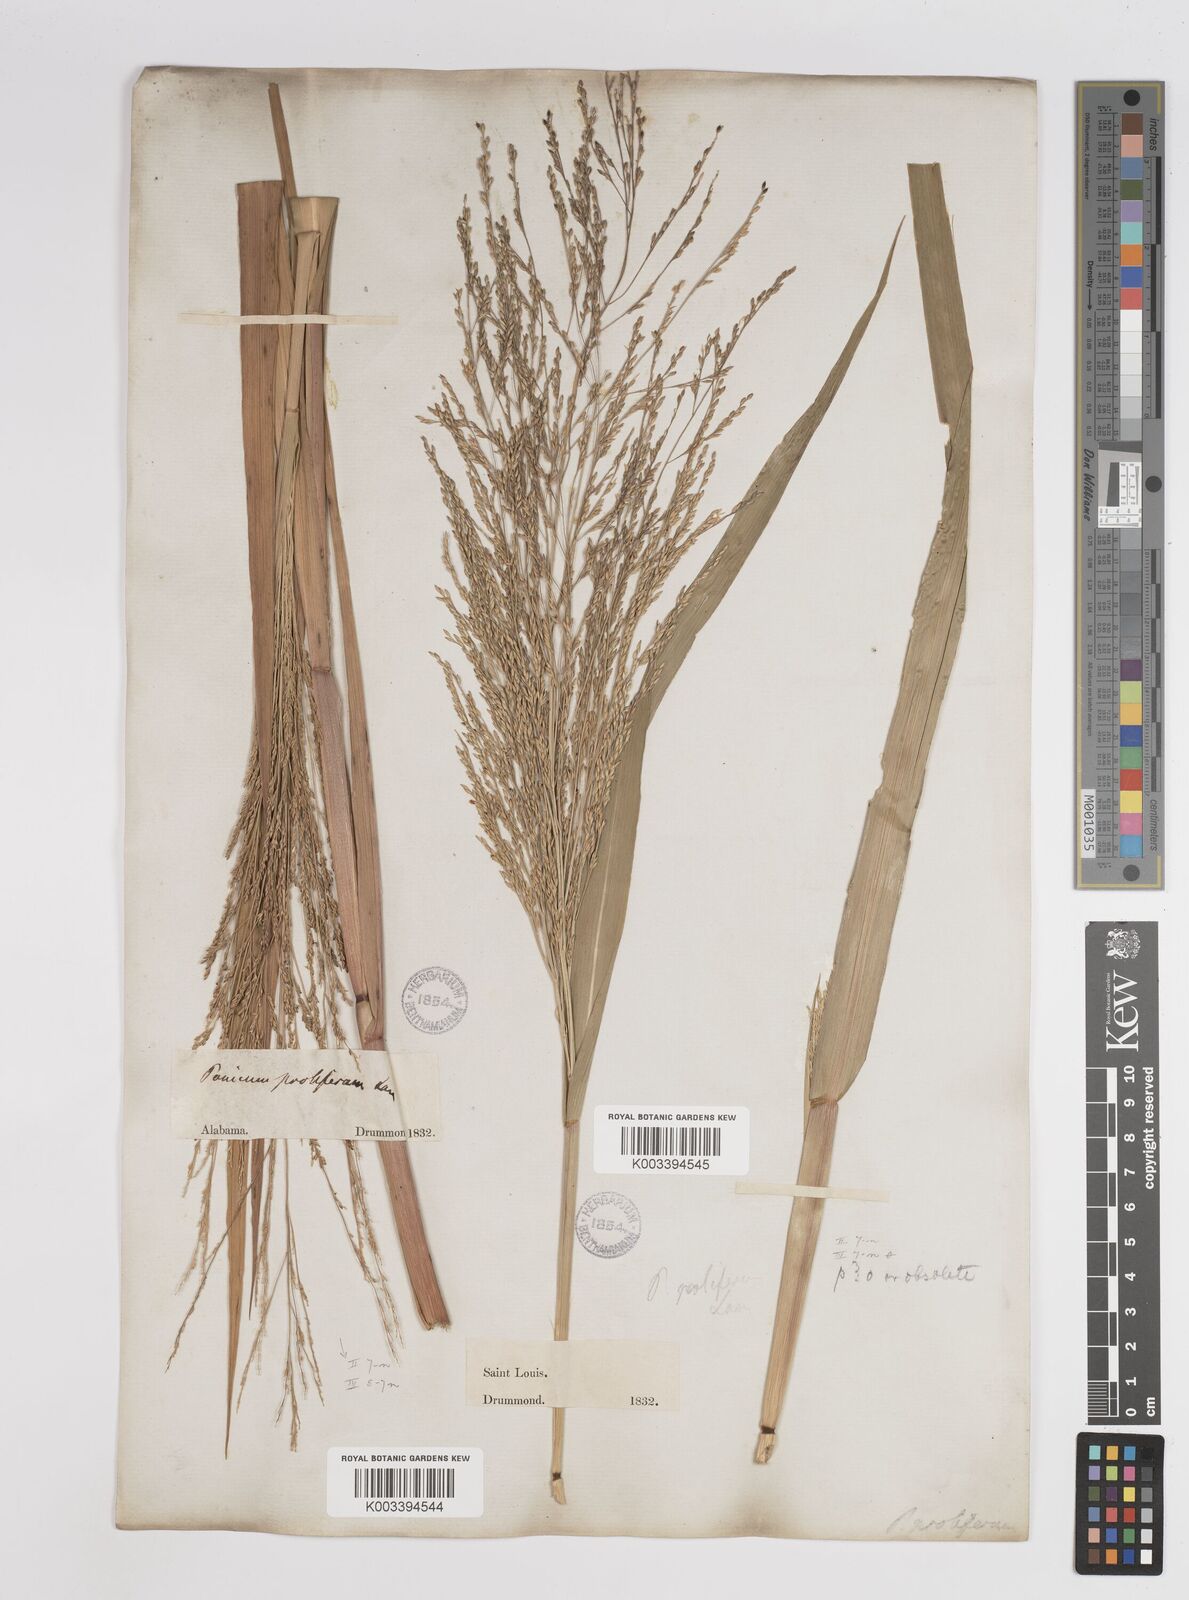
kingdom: Plantae
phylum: Tracheophyta
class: Liliopsida
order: Poales
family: Poaceae
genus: Panicum
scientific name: Panicum bartowense
